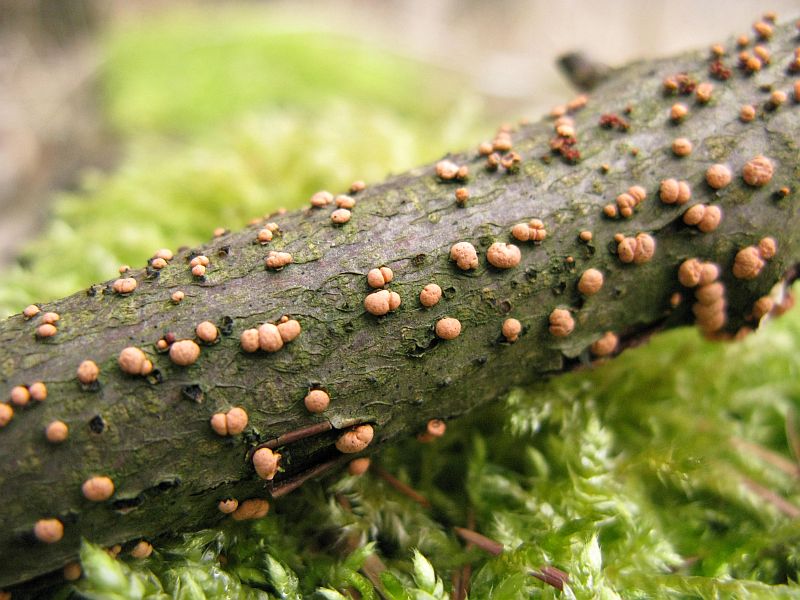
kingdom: Fungi
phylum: Ascomycota
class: Sordariomycetes
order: Hypocreales
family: Nectriaceae
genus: Nectria
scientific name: Nectria cinnabarina
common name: almindelig cinnobersvamp
